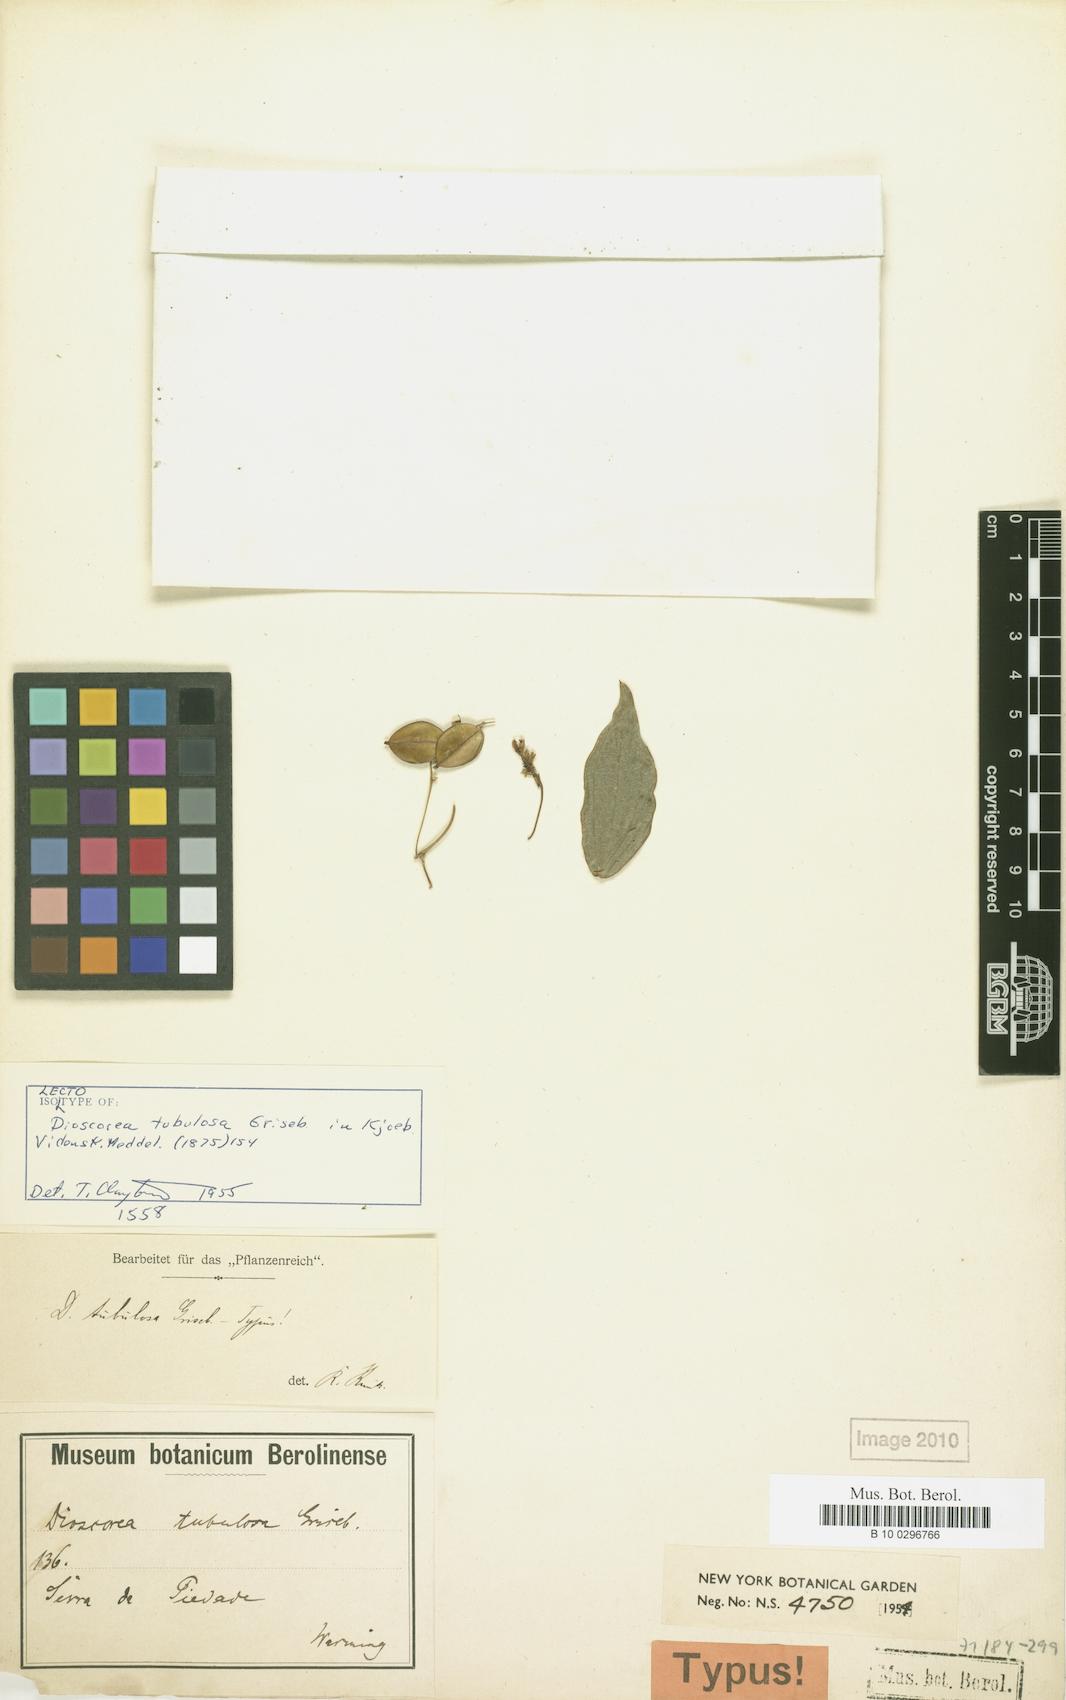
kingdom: Plantae
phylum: Tracheophyta
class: Liliopsida
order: Dioscoreales
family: Dioscoreaceae
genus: Dioscorea
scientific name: Dioscorea tubulosa
